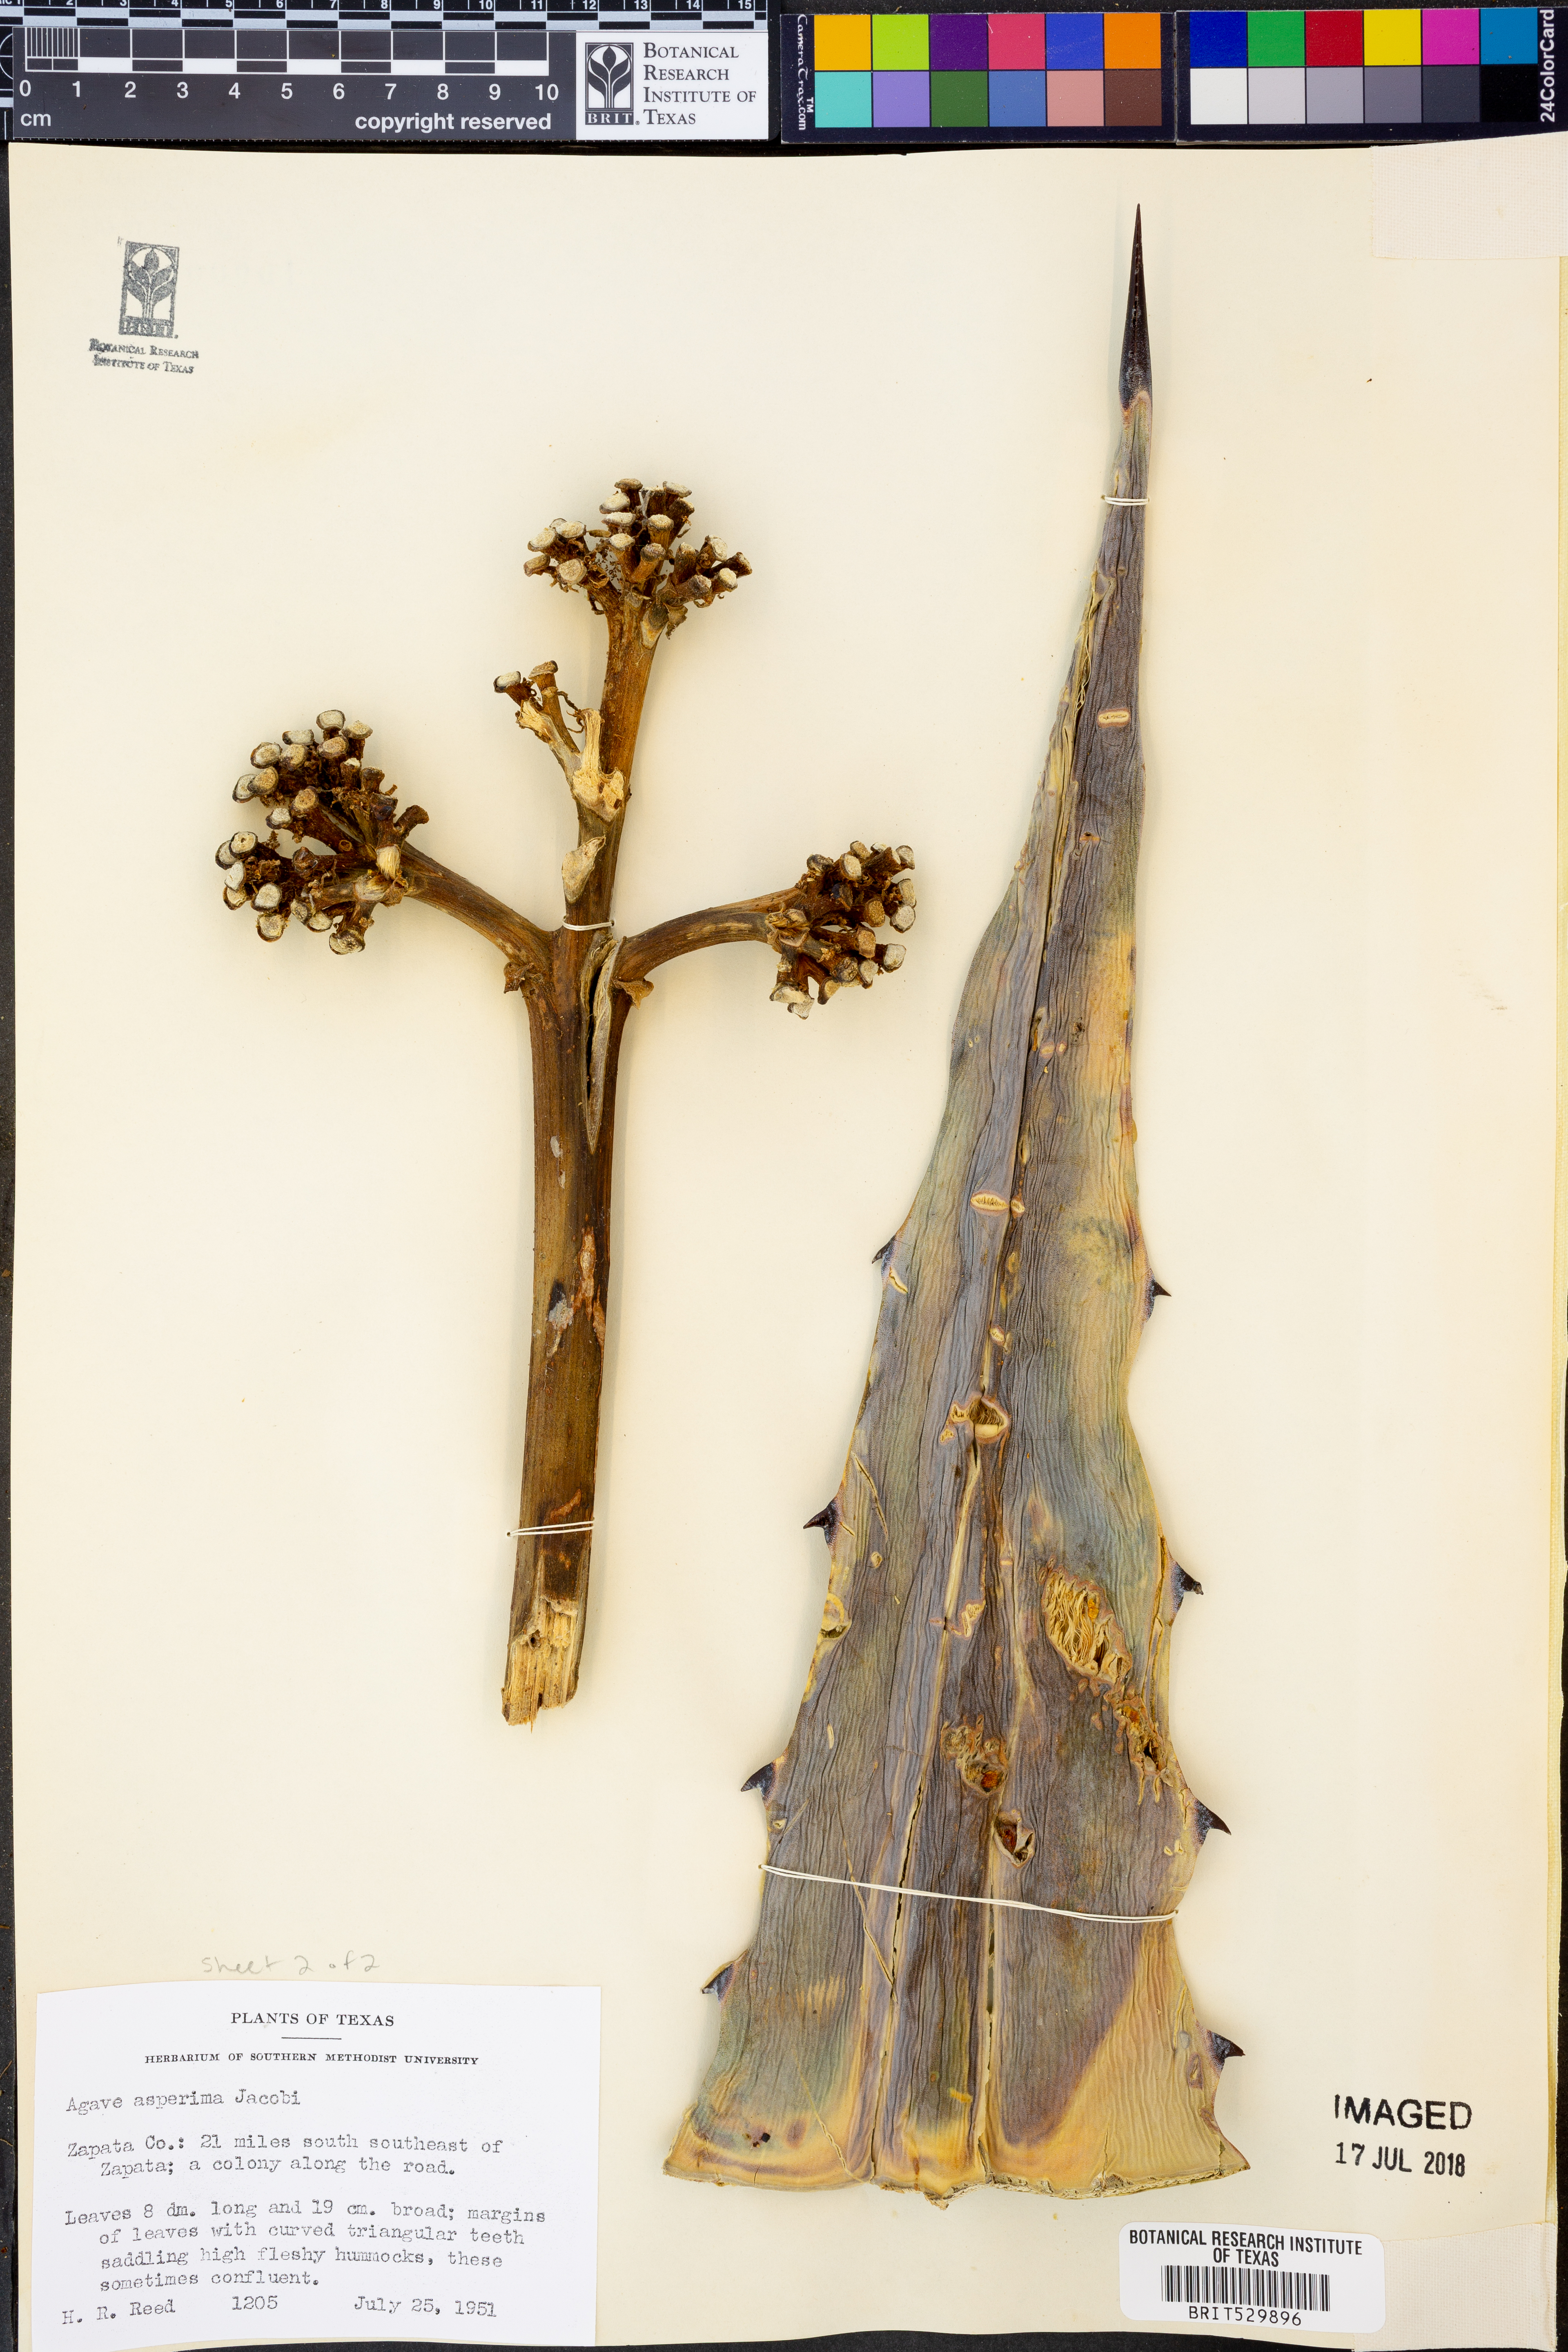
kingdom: Plantae
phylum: Tracheophyta
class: Liliopsida
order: Asparagales
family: Asparagaceae
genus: Agave
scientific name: Agave asperrima
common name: Rough agave
